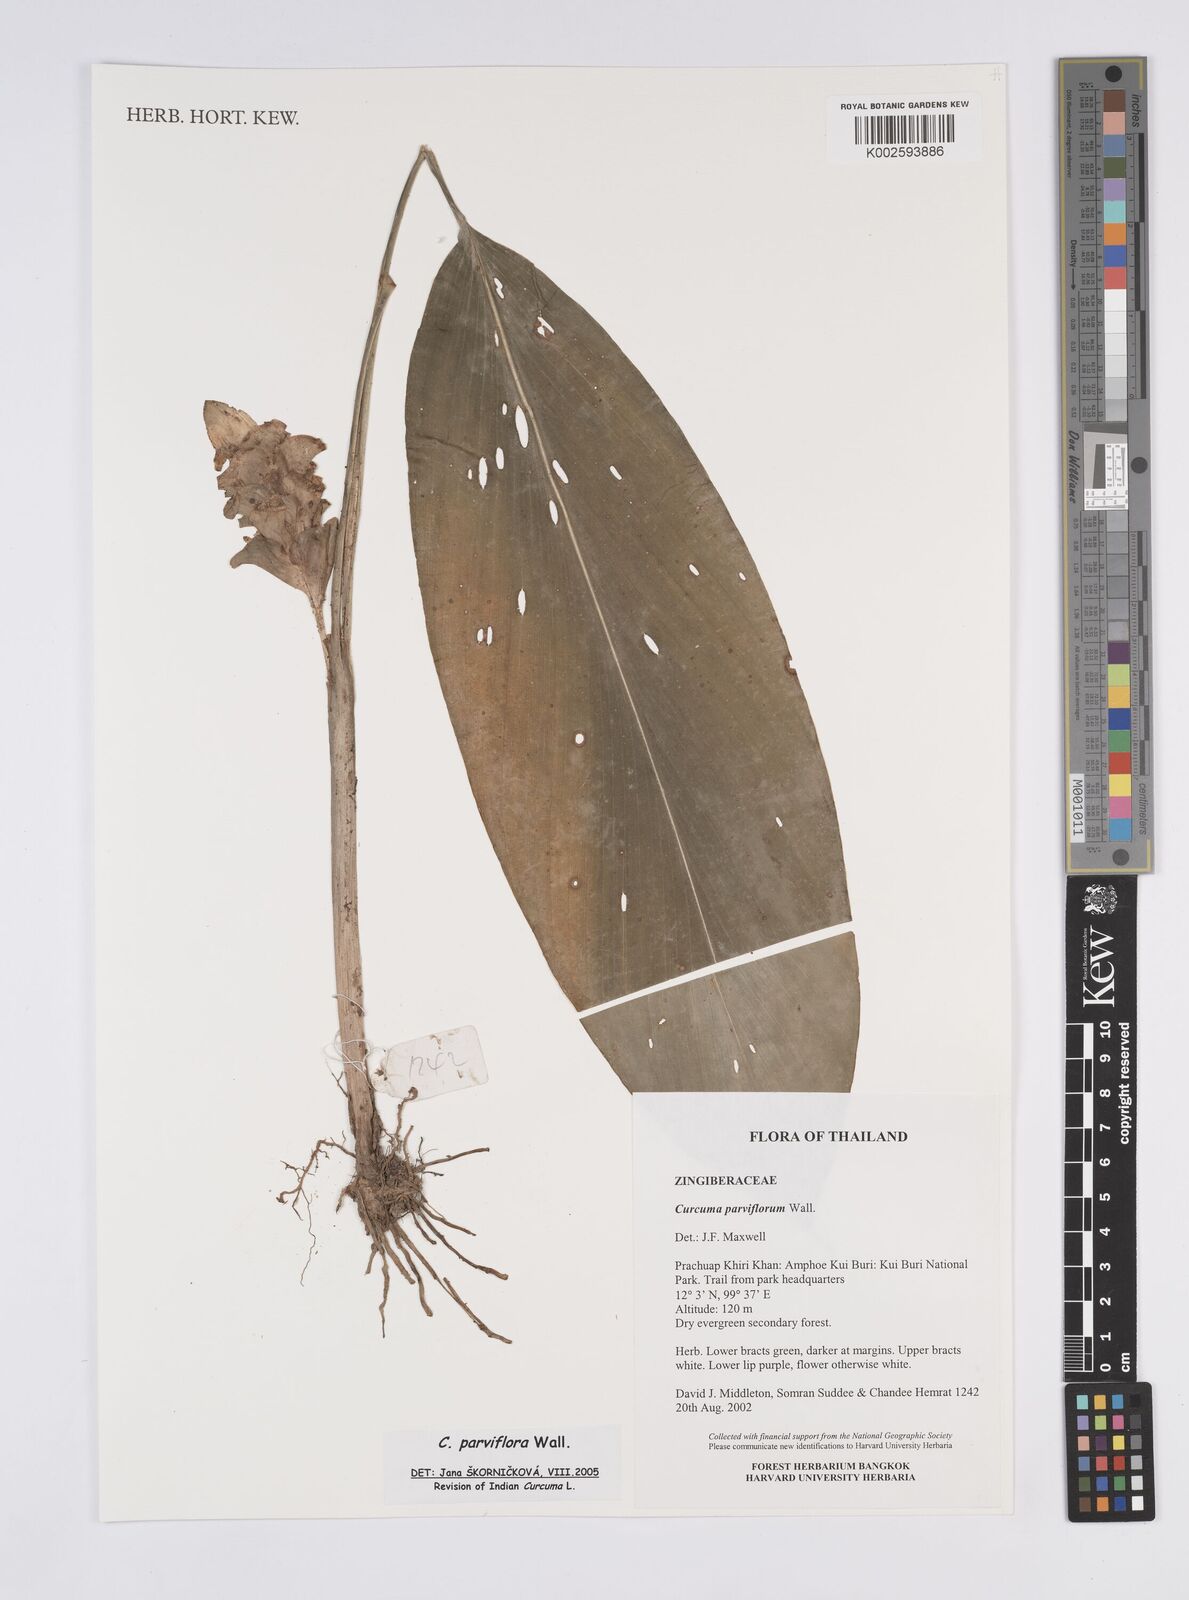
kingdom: Plantae
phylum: Tracheophyta
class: Liliopsida
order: Zingiberales
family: Zingiberaceae
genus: Curcuma
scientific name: Curcuma parviflora
